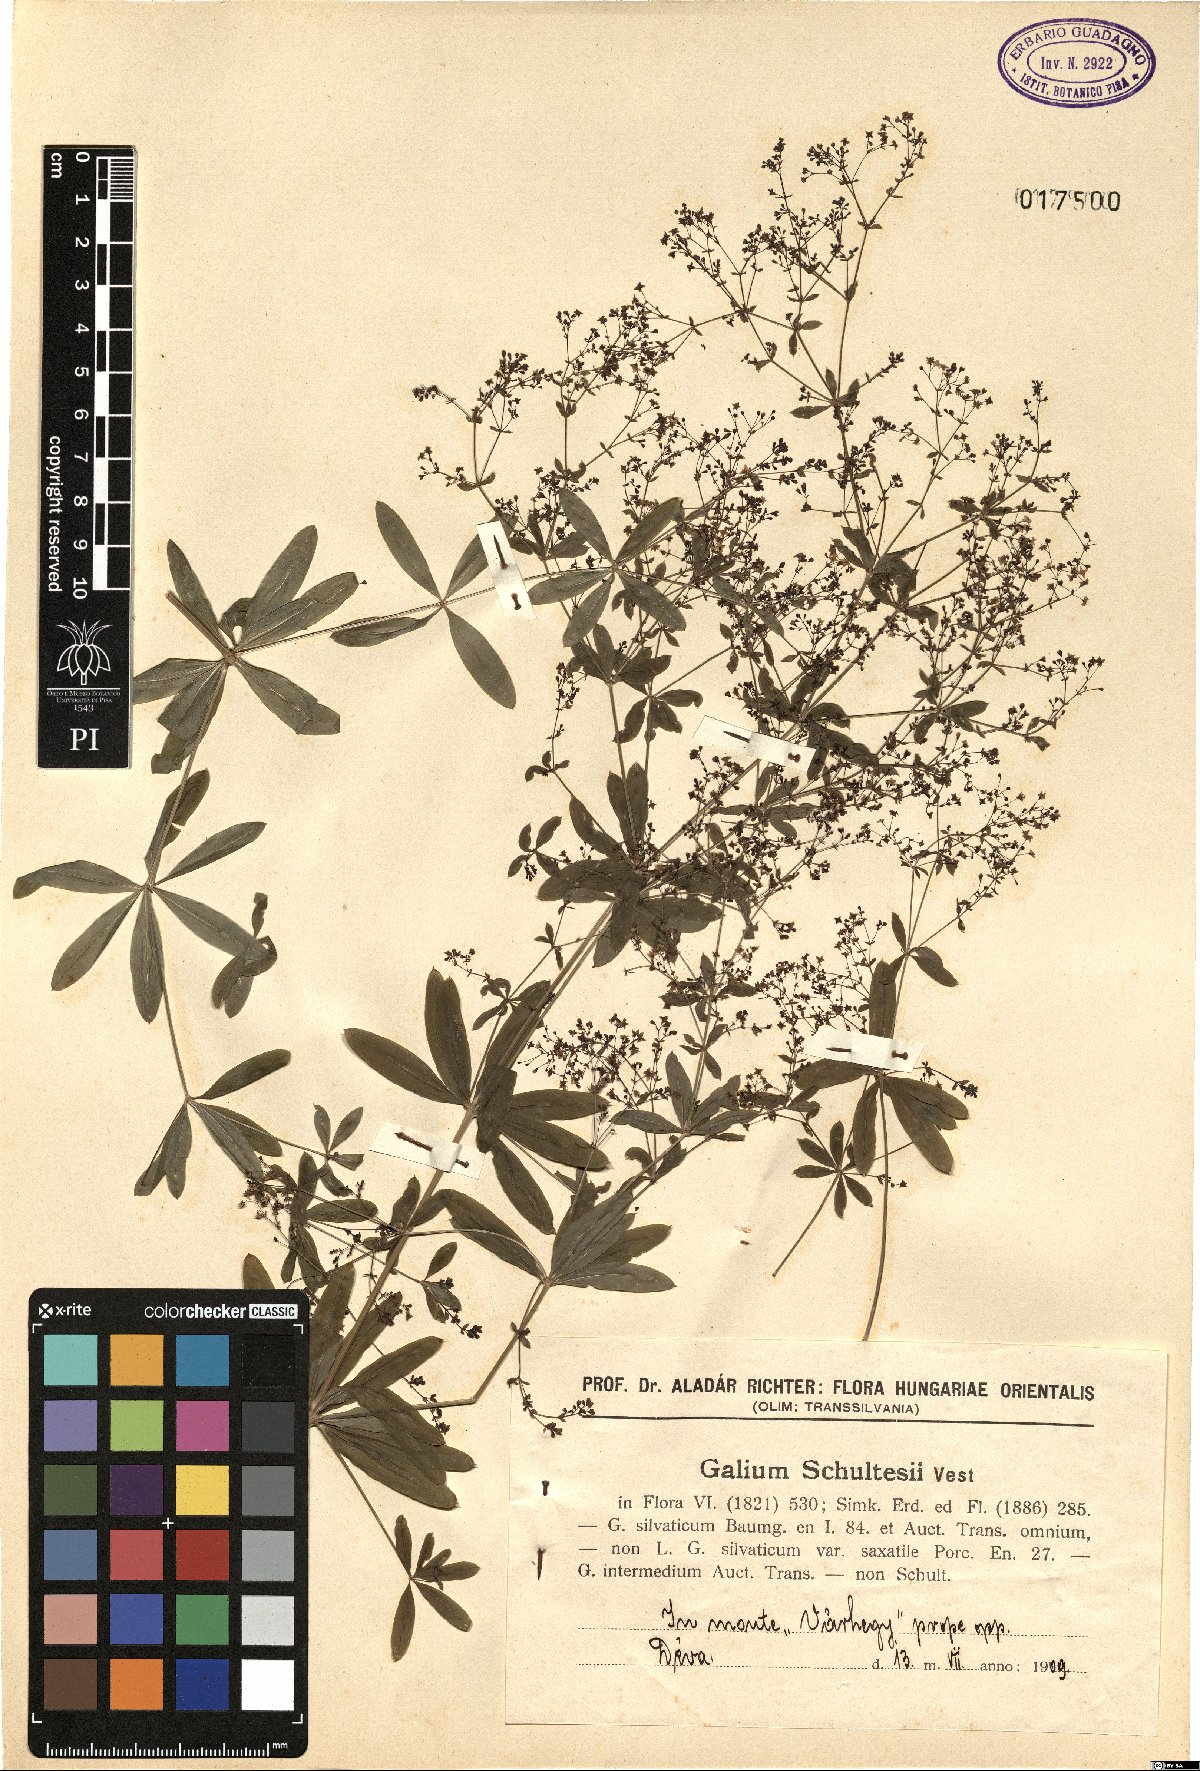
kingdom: Plantae
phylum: Tracheophyta
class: Magnoliopsida
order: Gentianales
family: Rubiaceae
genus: Galium
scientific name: Galium intermedium
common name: Bedstraw
